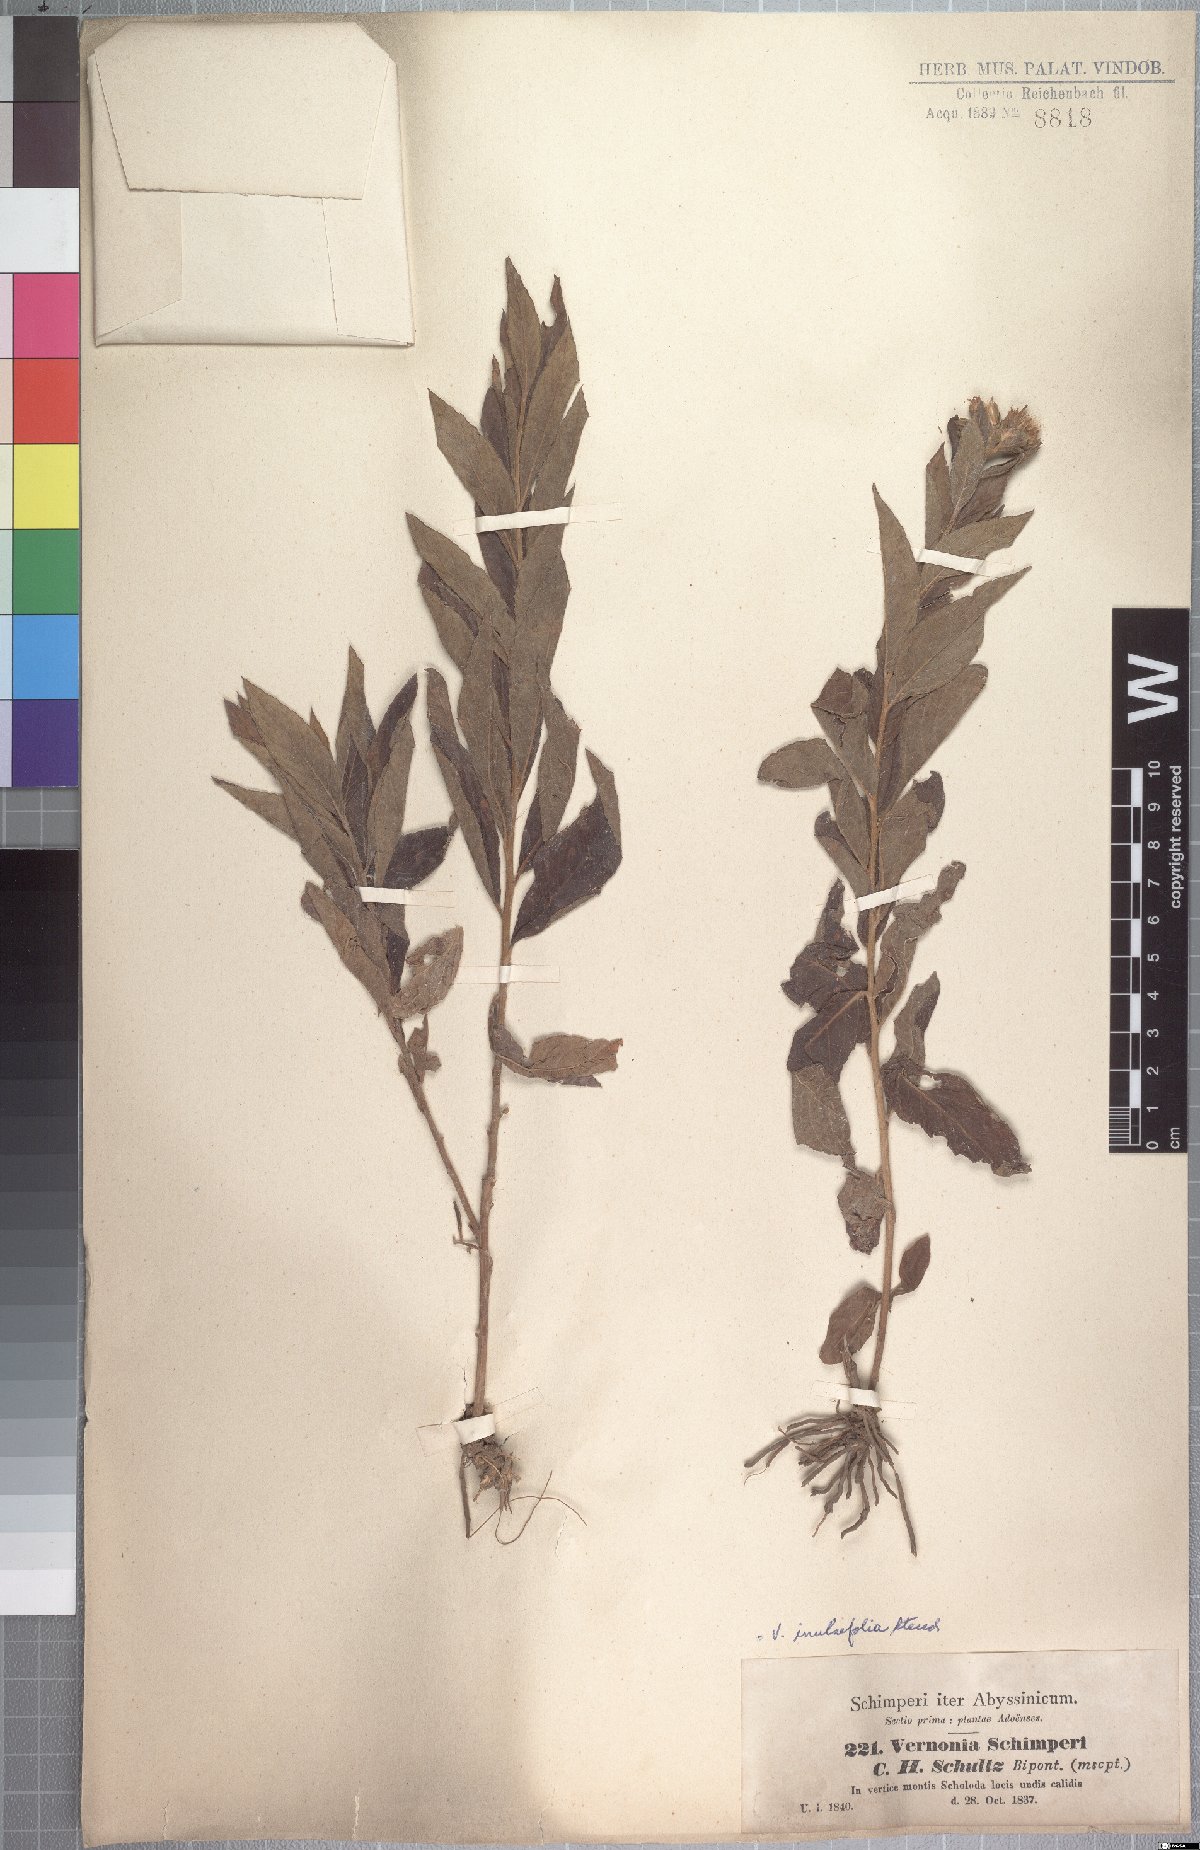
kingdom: Plantae
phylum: Tracheophyta
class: Magnoliopsida
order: Asterales
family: Asteraceae
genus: Nothovernonia
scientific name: Nothovernonia purpurea
